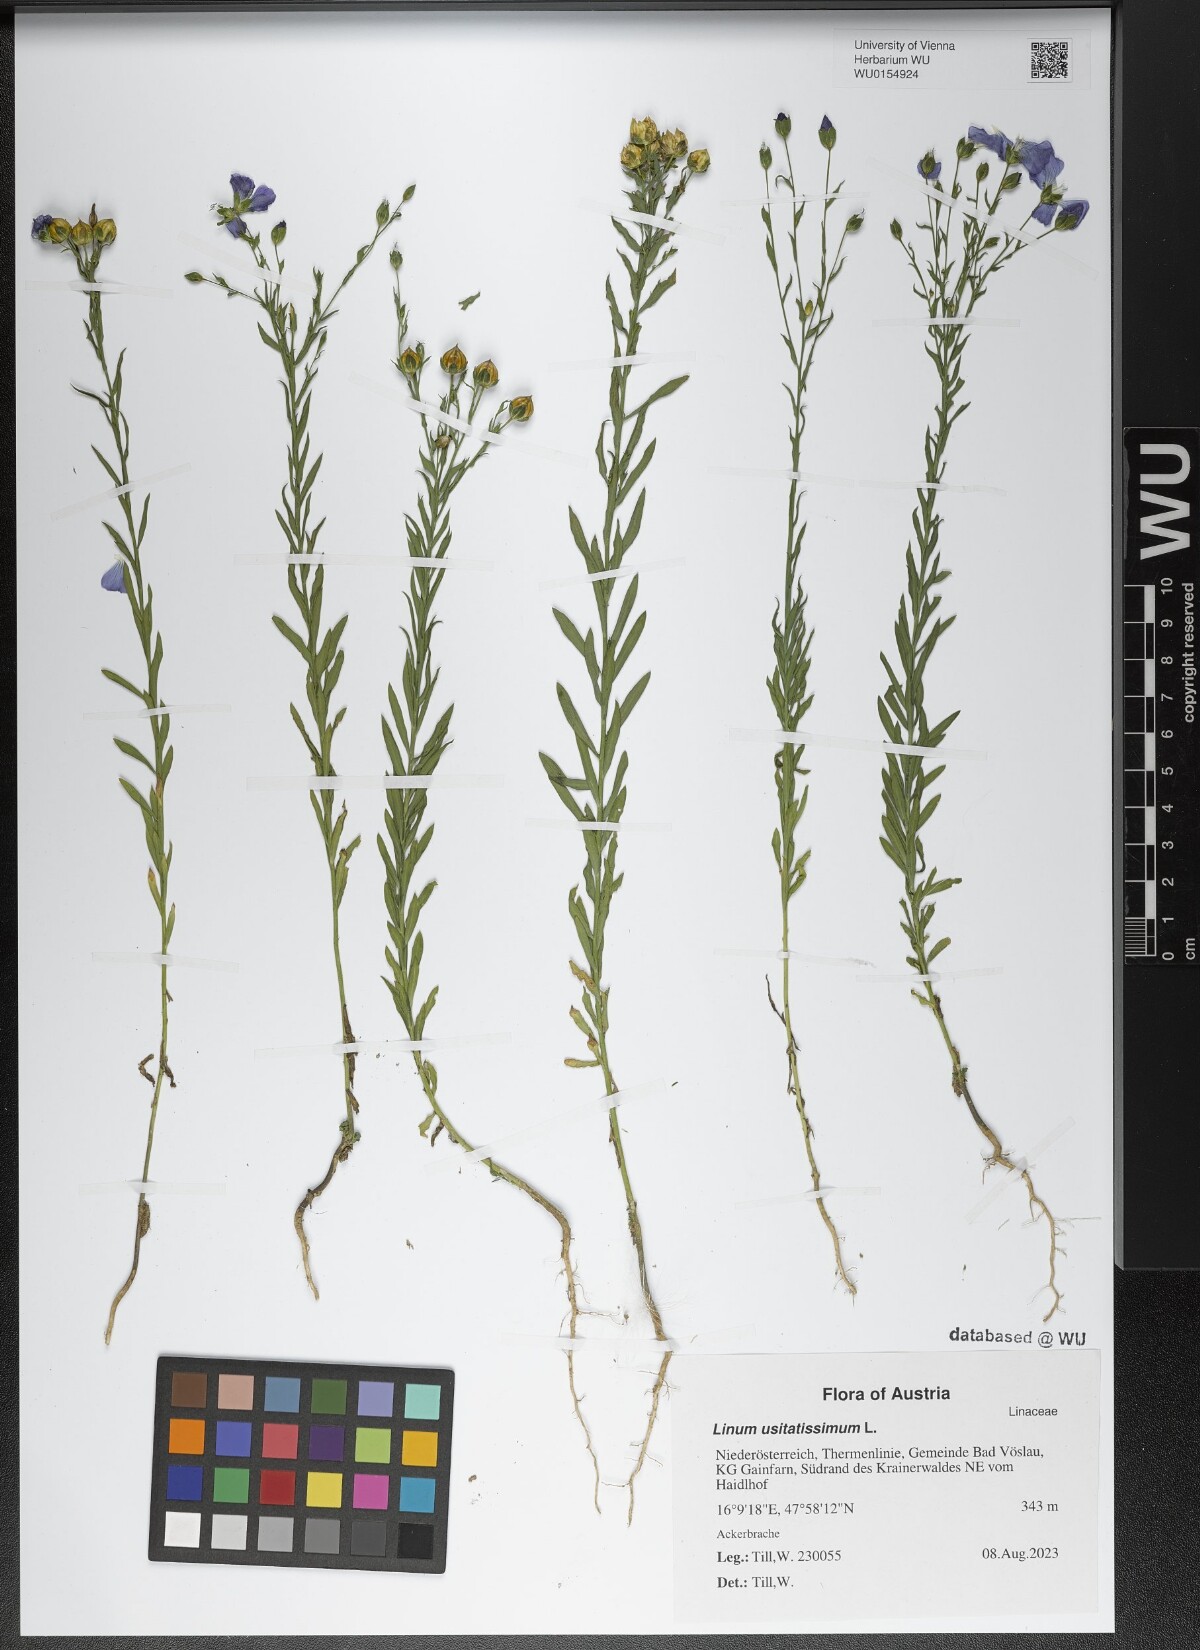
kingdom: Plantae
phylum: Tracheophyta
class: Magnoliopsida
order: Malpighiales
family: Linaceae
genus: Linum
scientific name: Linum usitatissimum
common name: Flax
